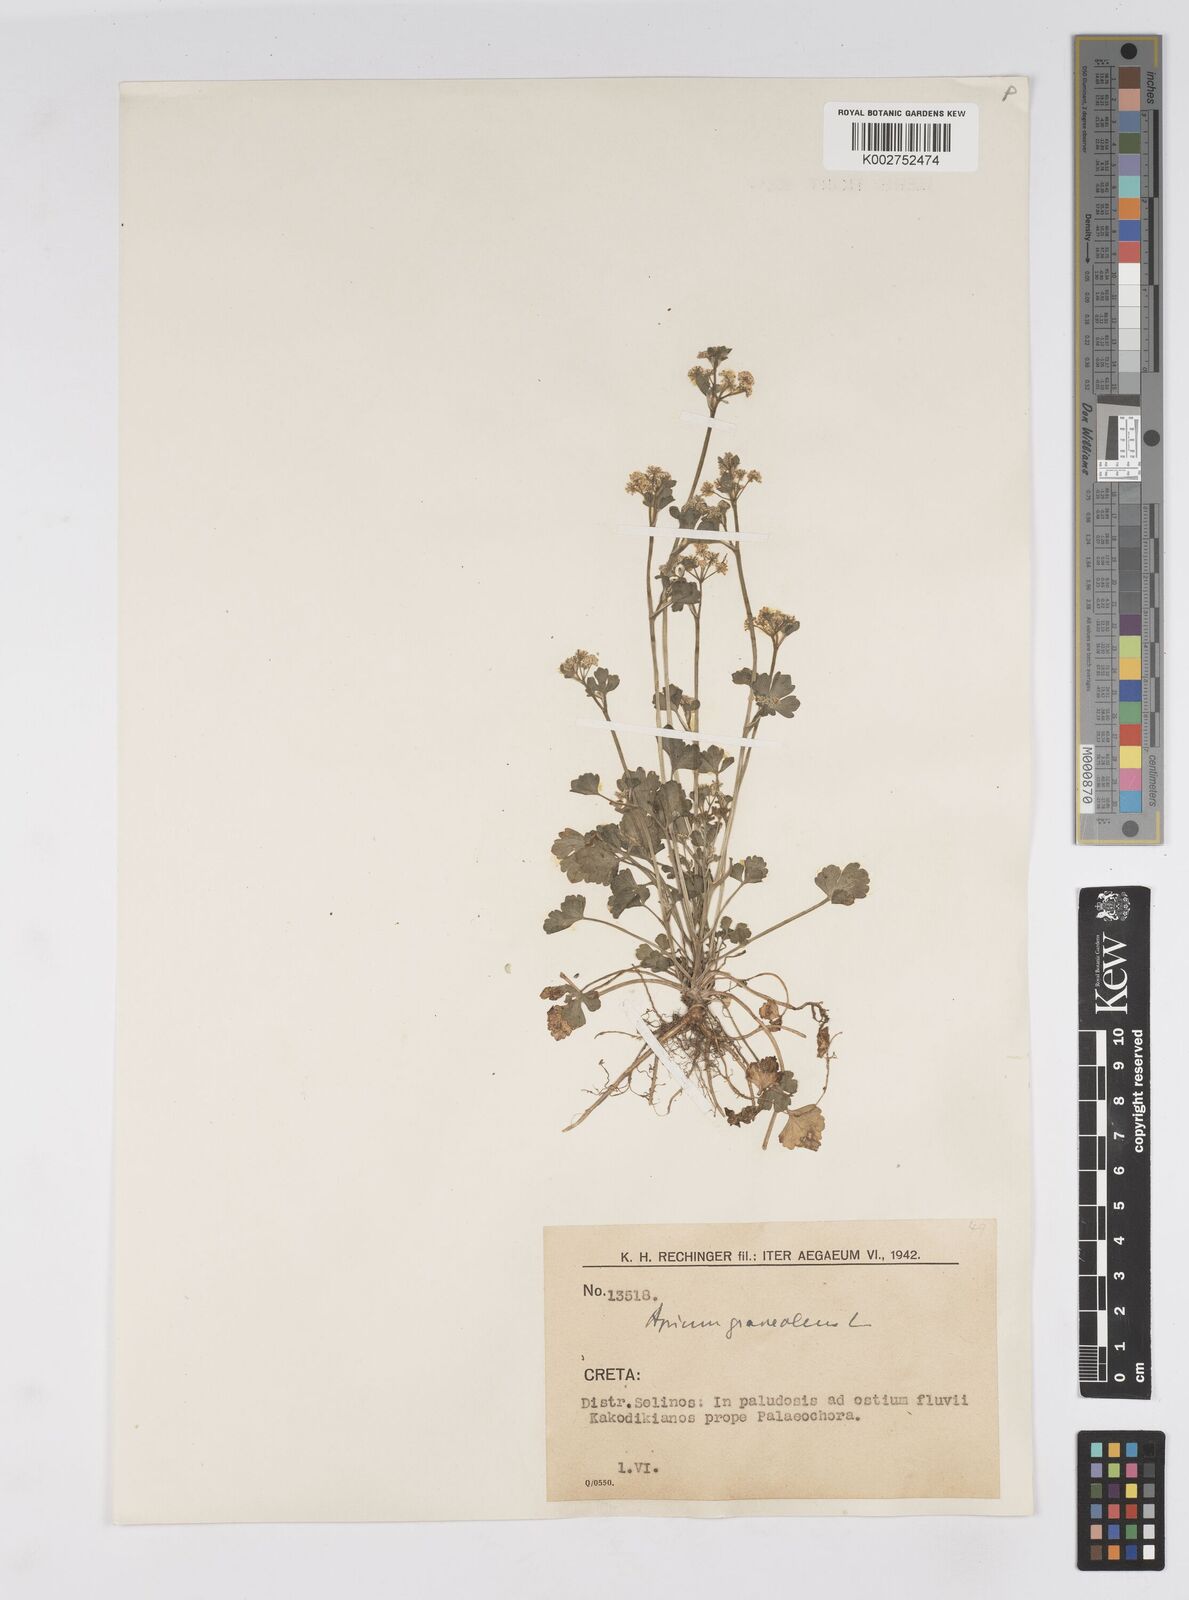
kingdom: Plantae
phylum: Tracheophyta
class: Magnoliopsida
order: Apiales
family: Apiaceae
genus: Apium
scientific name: Apium graveolens
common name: Wild celery
